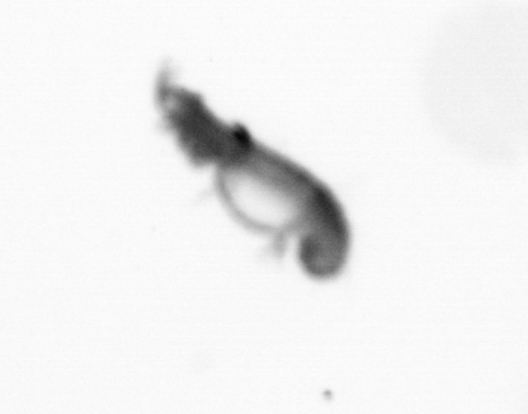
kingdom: Animalia
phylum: Annelida
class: Polychaeta
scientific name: Polychaeta
